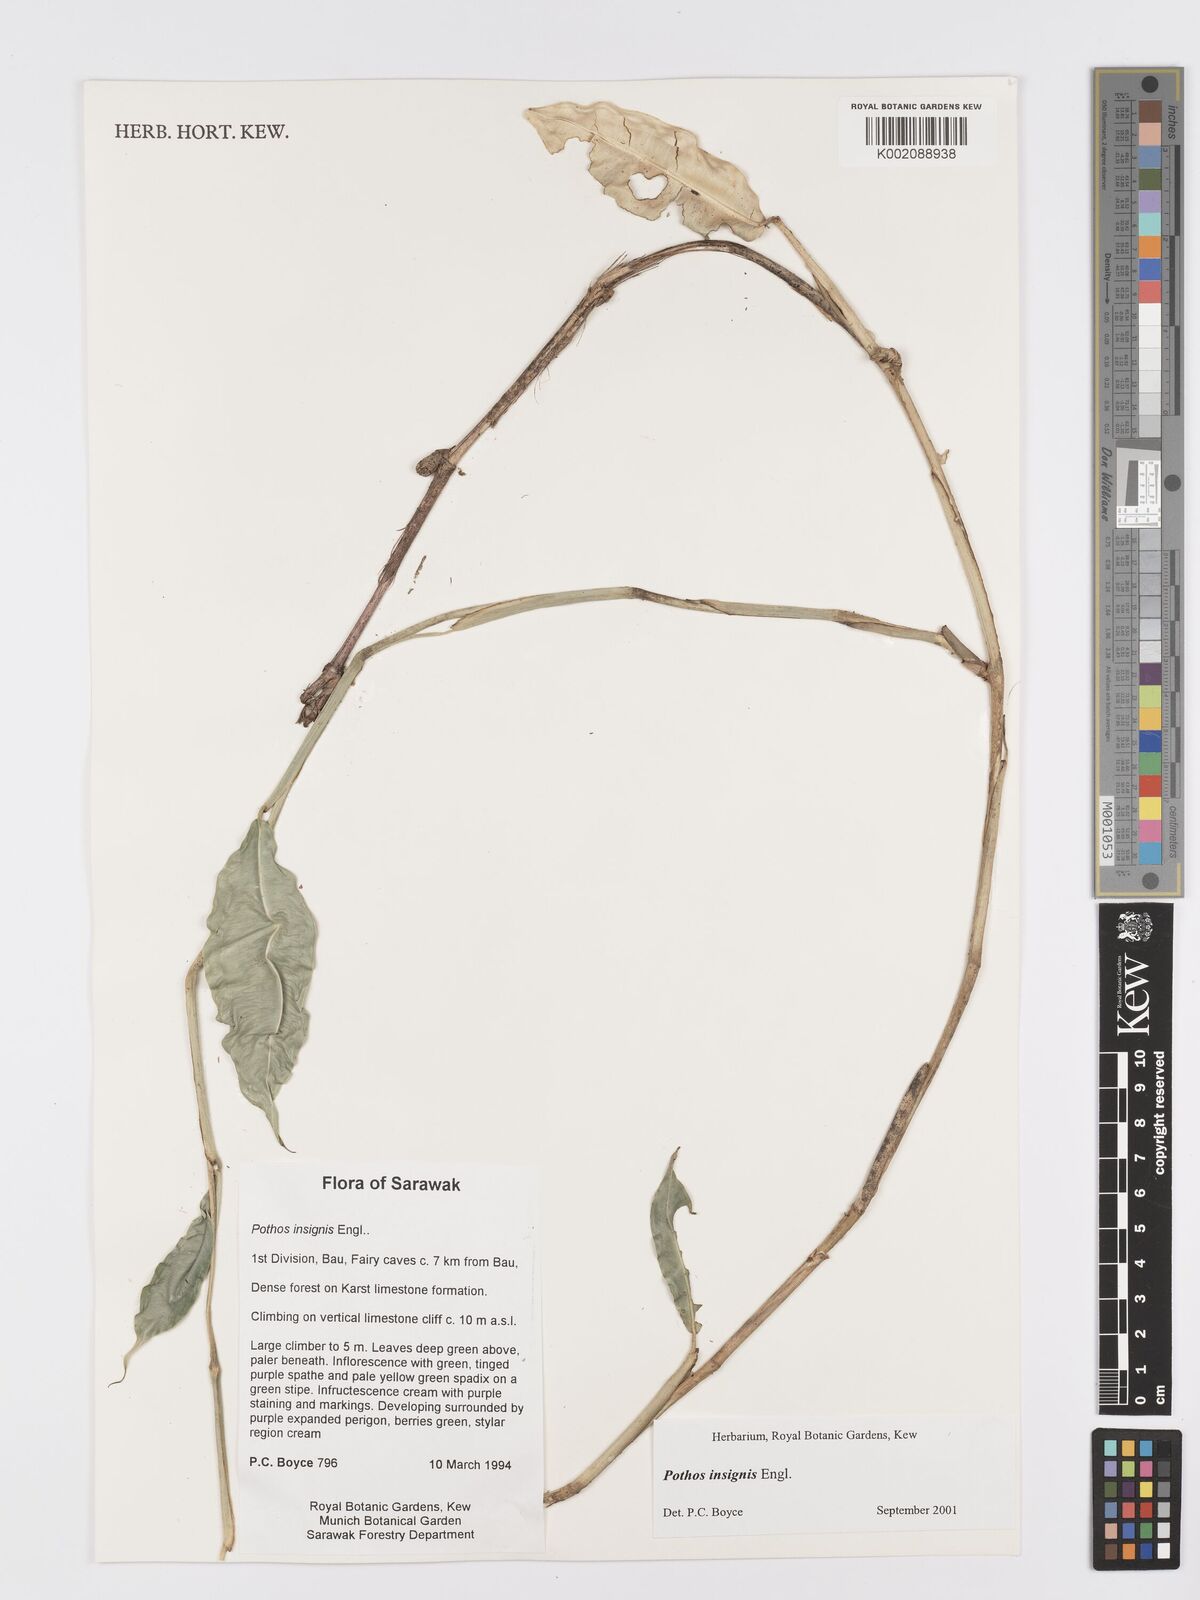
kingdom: Plantae
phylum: Tracheophyta
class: Liliopsida
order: Alismatales
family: Araceae
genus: Pothos
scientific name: Pothos insignis
